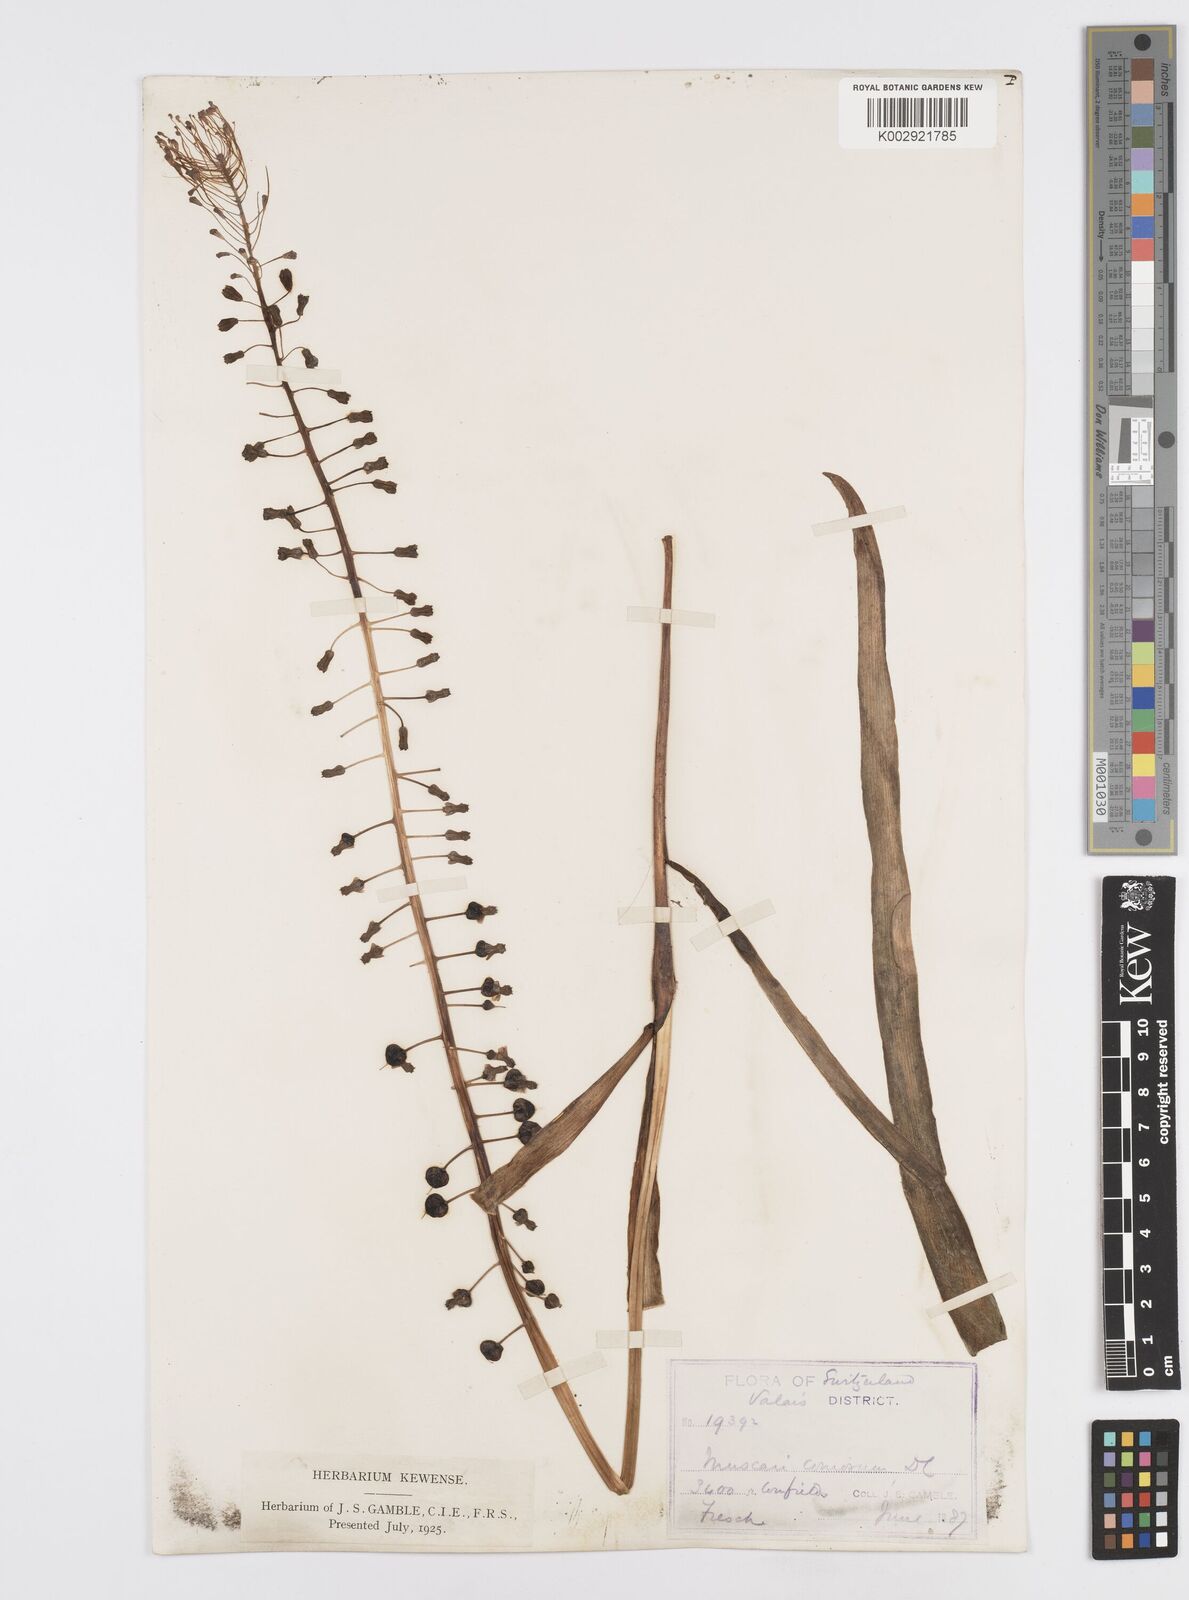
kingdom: Plantae
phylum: Tracheophyta
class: Liliopsida
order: Asparagales
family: Asparagaceae
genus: Muscari
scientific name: Muscari comosum
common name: Tassel hyacinth
